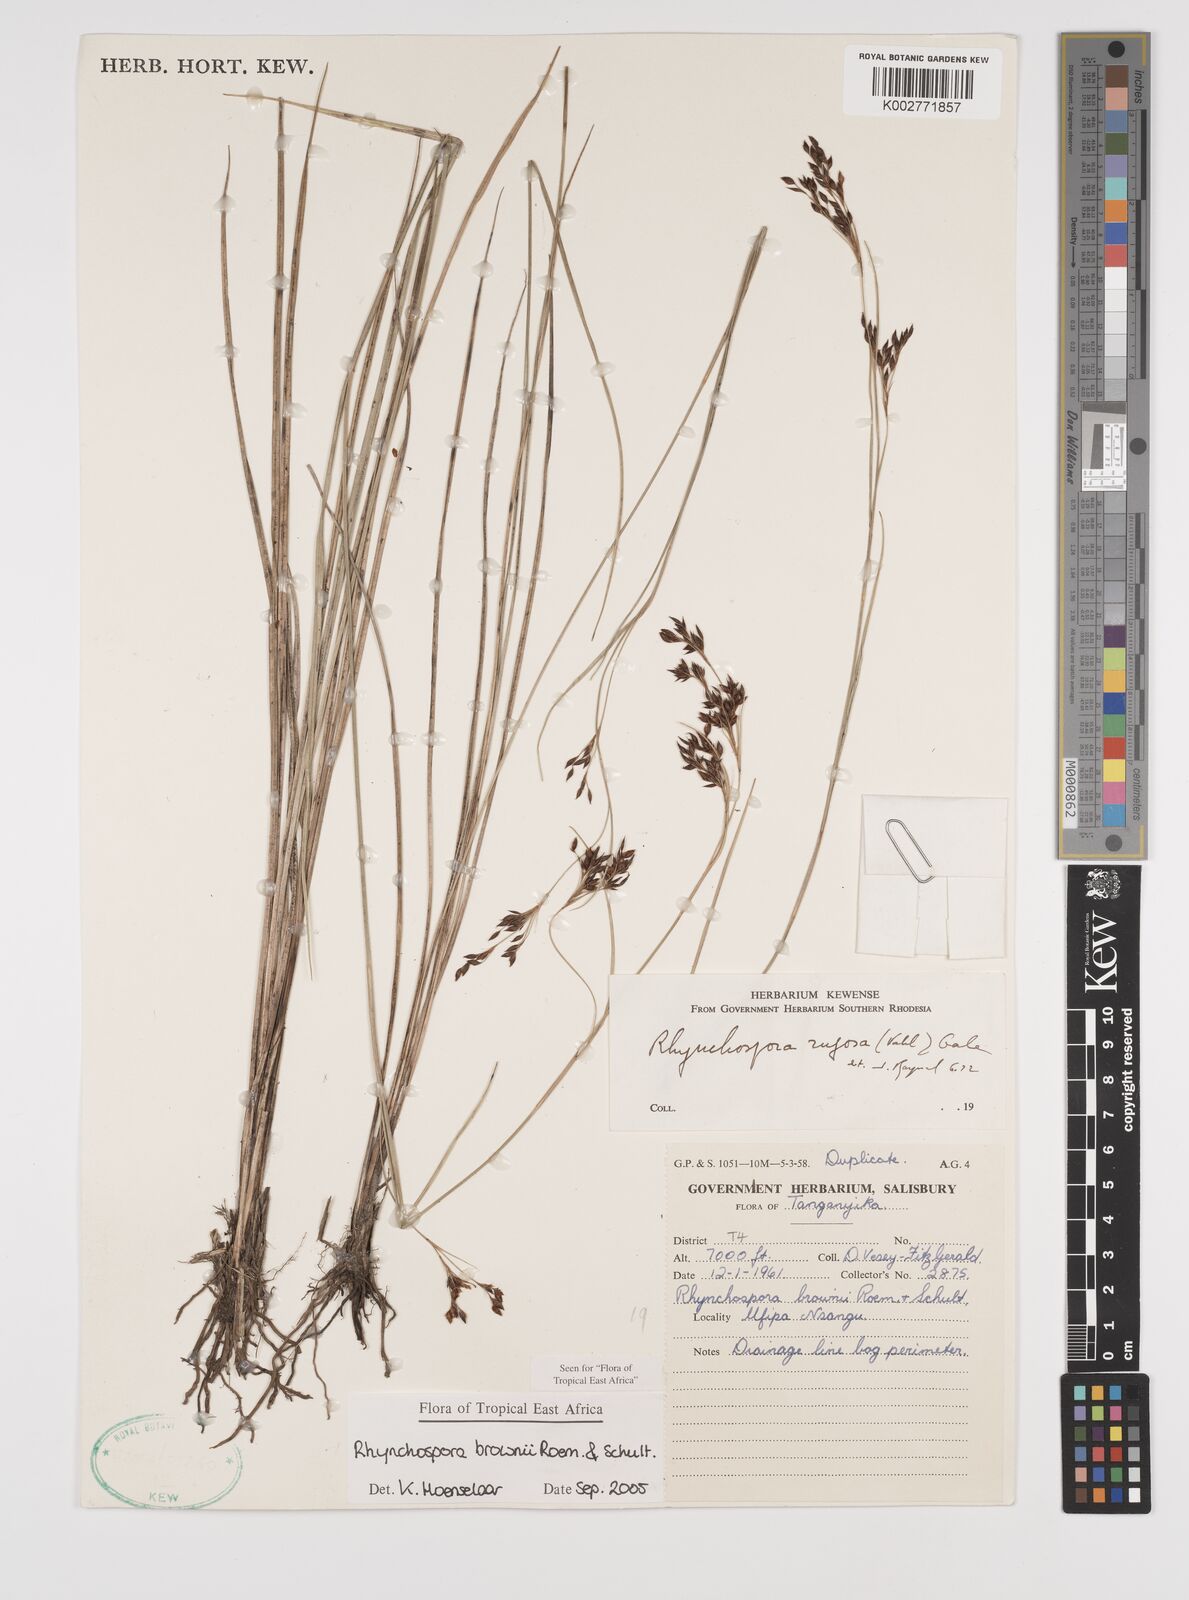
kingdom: Plantae
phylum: Tracheophyta
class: Liliopsida
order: Poales
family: Cyperaceae
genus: Rhynchospora
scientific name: Rhynchospora brownii
